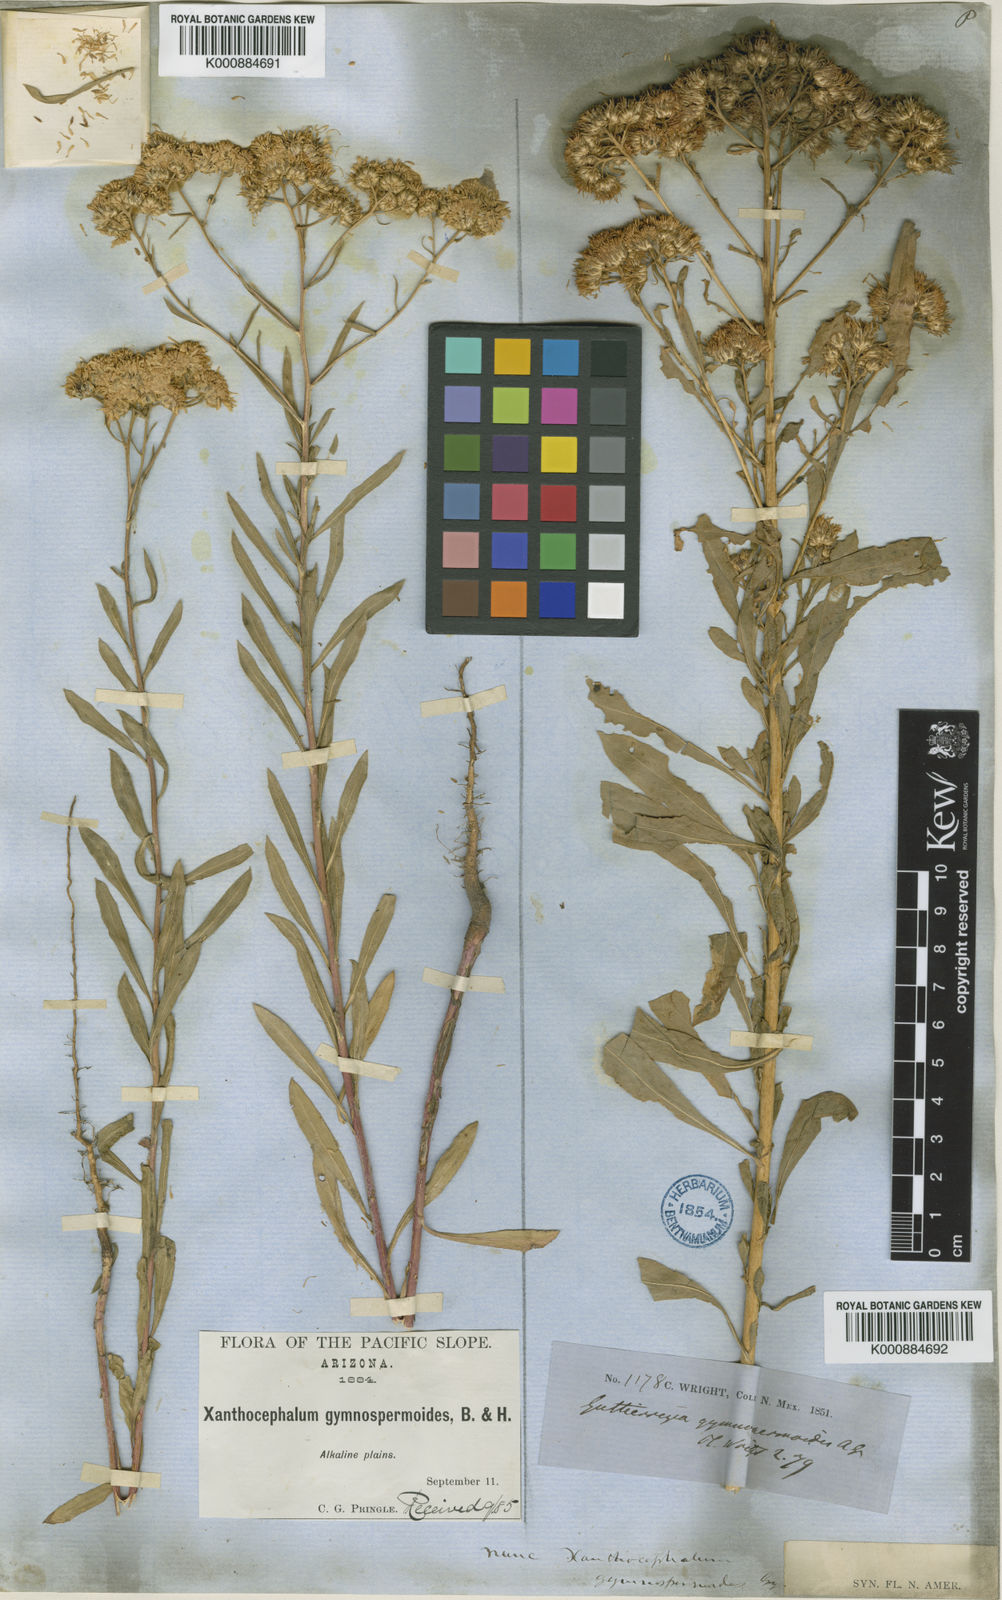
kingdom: Plantae
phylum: Tracheophyta
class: Magnoliopsida
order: Asterales
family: Asteraceae
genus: Xanthocephalum
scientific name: Xanthocephalum
